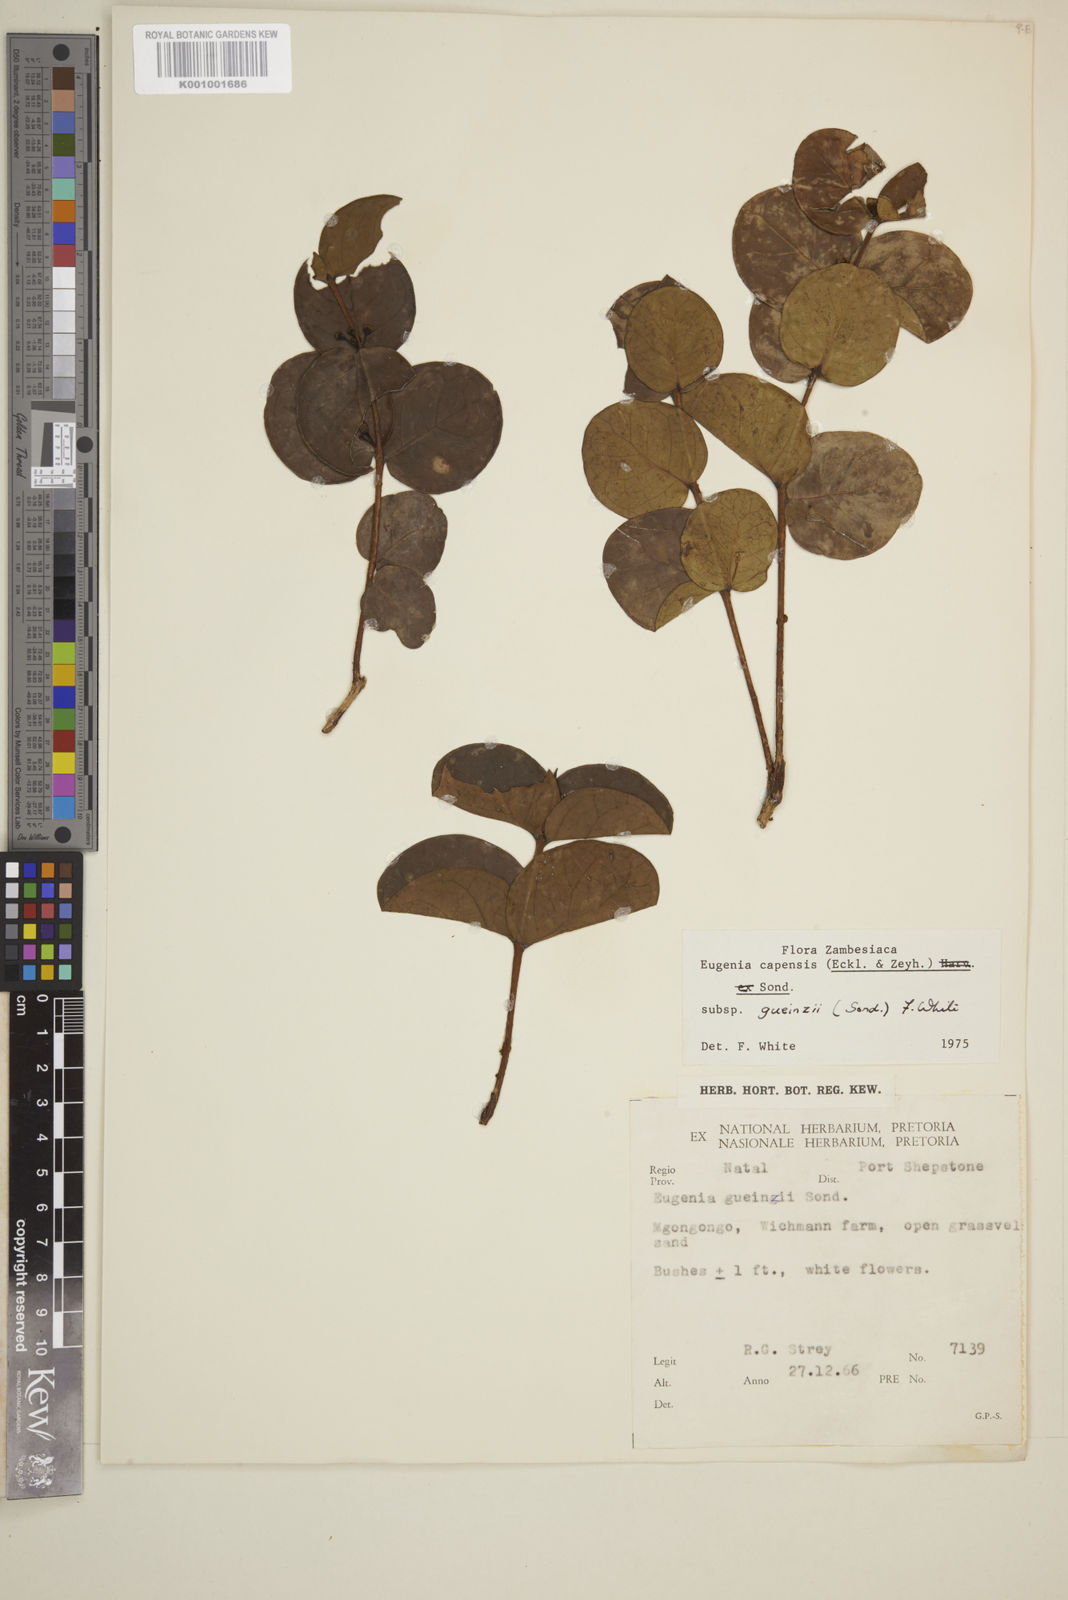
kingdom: Plantae
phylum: Tracheophyta
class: Magnoliopsida
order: Myrtales
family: Myrtaceae
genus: Eugenia
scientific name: Eugenia capensis
